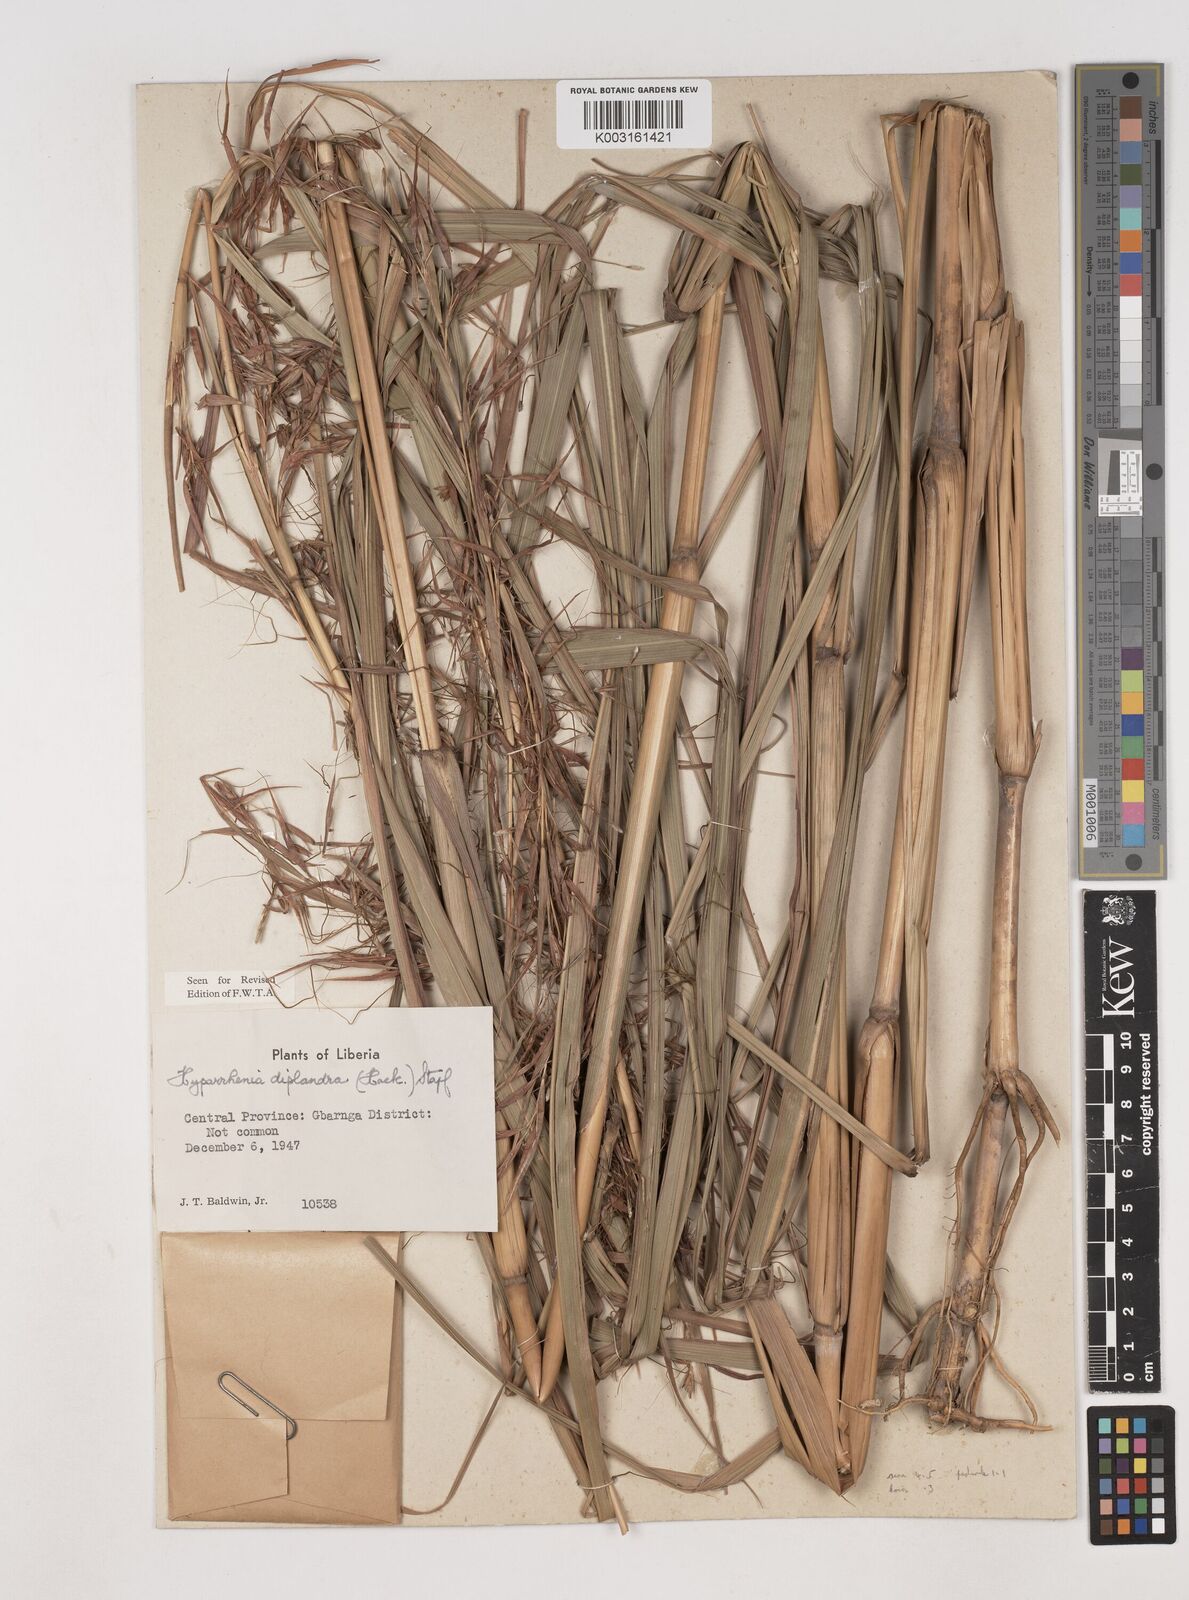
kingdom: Plantae
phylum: Tracheophyta
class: Liliopsida
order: Poales
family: Poaceae
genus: Hyparrhenia
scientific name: Hyparrhenia diplandra
